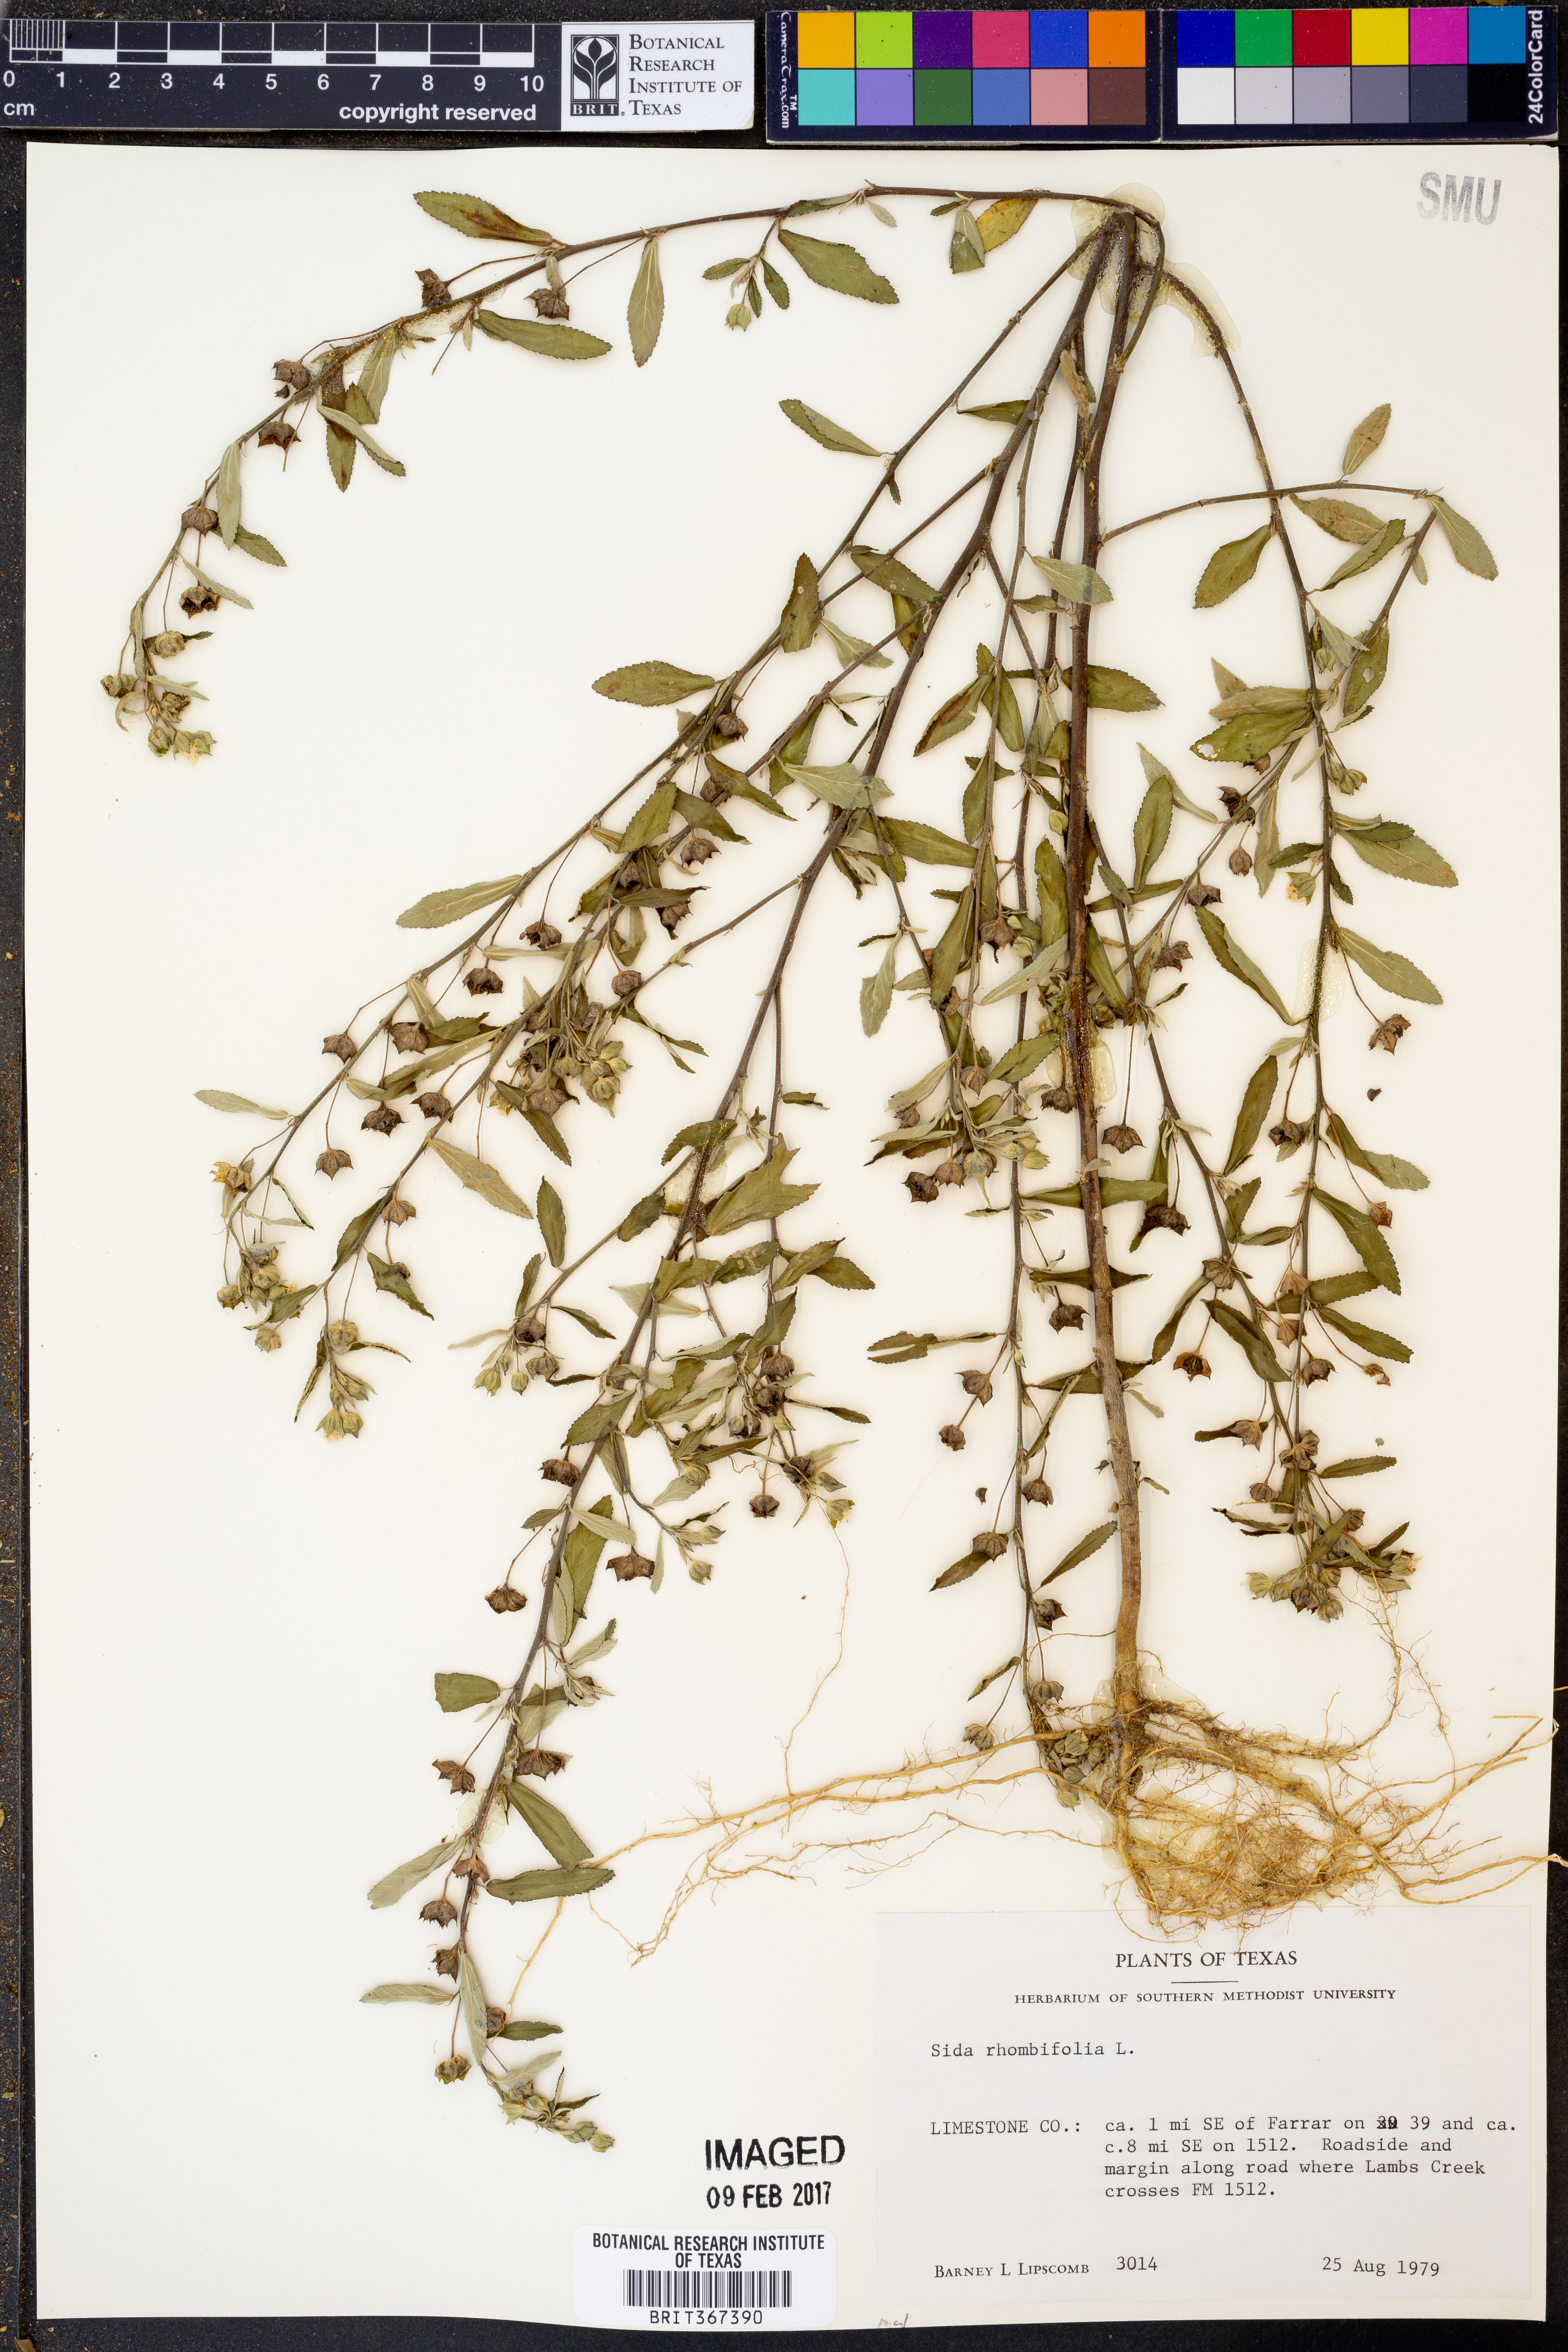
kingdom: Plantae
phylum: Tracheophyta
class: Magnoliopsida
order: Malvales
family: Malvaceae
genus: Sida
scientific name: Sida rhombifolia
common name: Queensland-hemp
